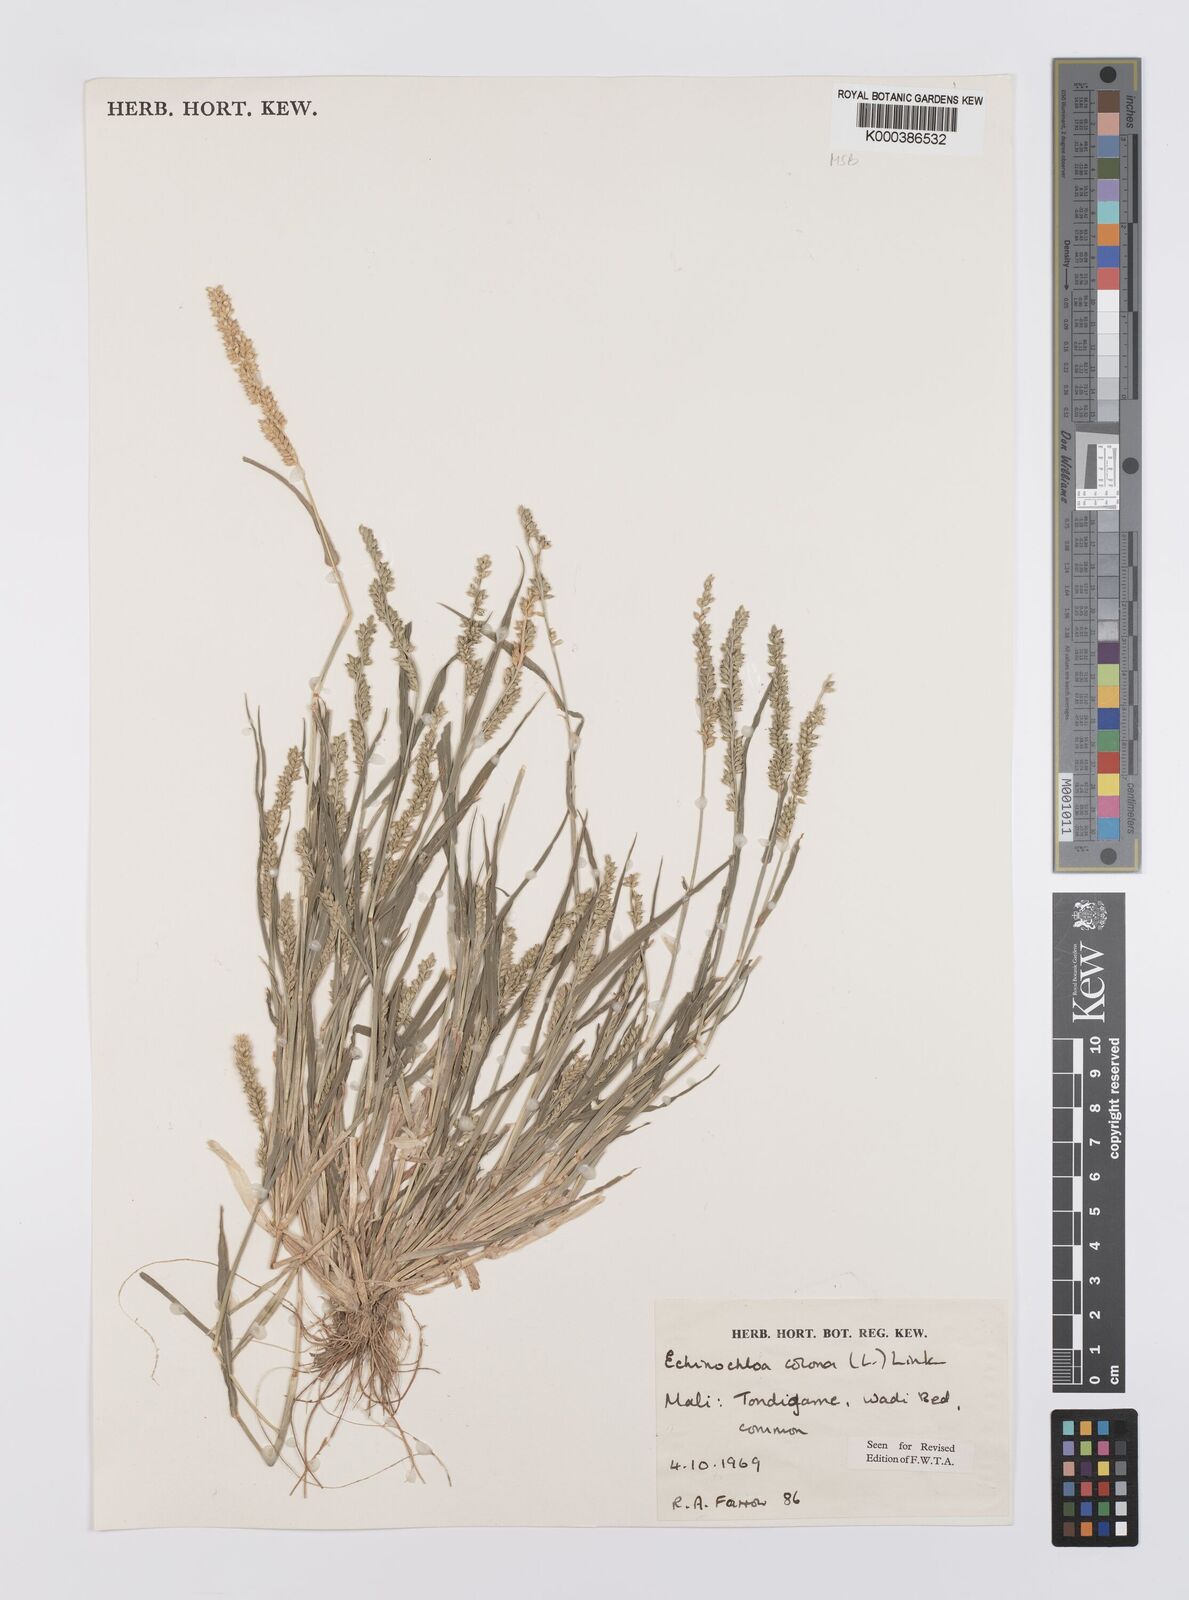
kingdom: Plantae
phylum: Tracheophyta
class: Liliopsida
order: Poales
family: Poaceae
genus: Echinochloa
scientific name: Echinochloa colonum
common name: Jungle rice
